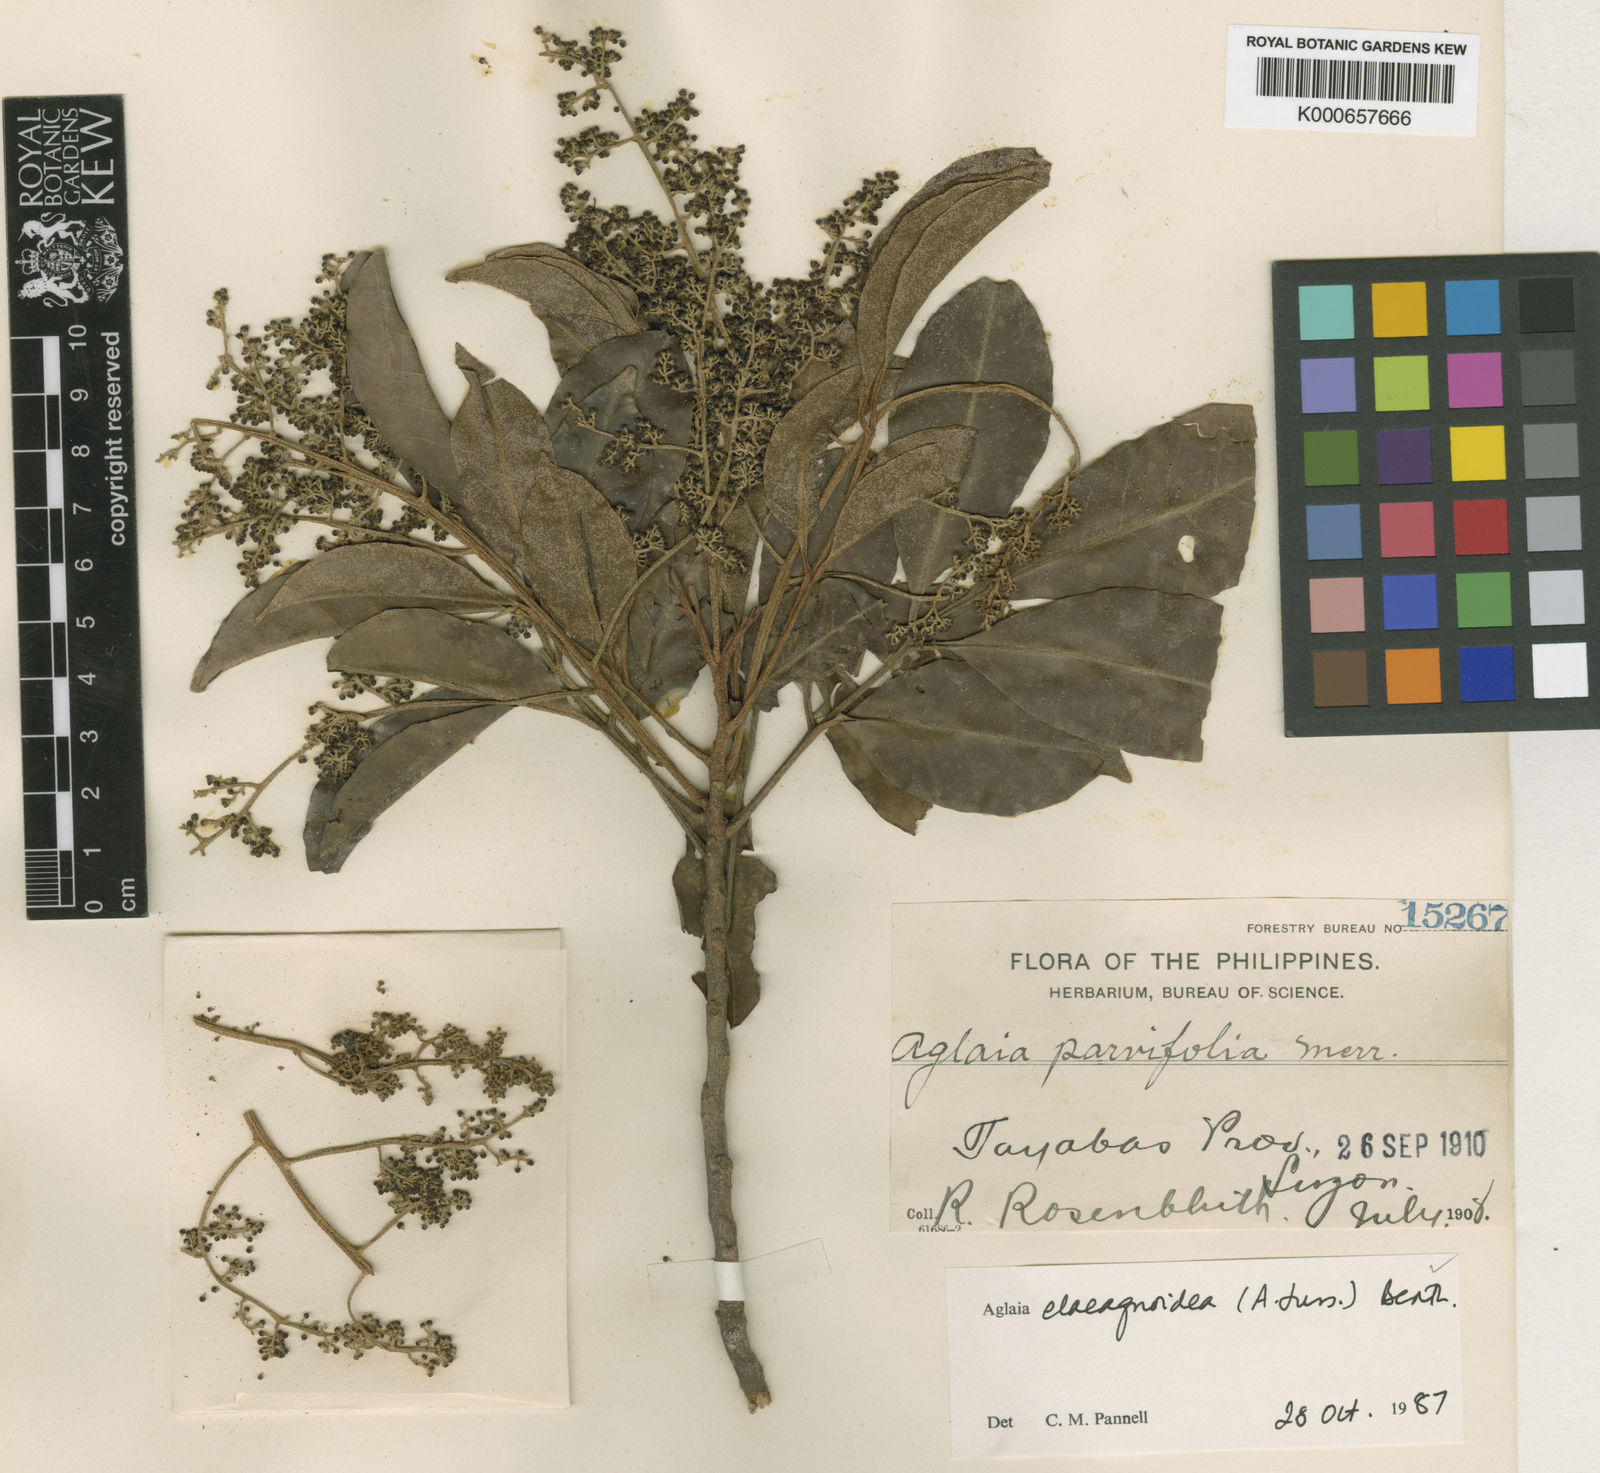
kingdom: Plantae
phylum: Tracheophyta
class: Magnoliopsida
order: Sapindales
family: Meliaceae
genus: Aglaia
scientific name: Aglaia elaeagnoidea
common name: Droopyleaf
